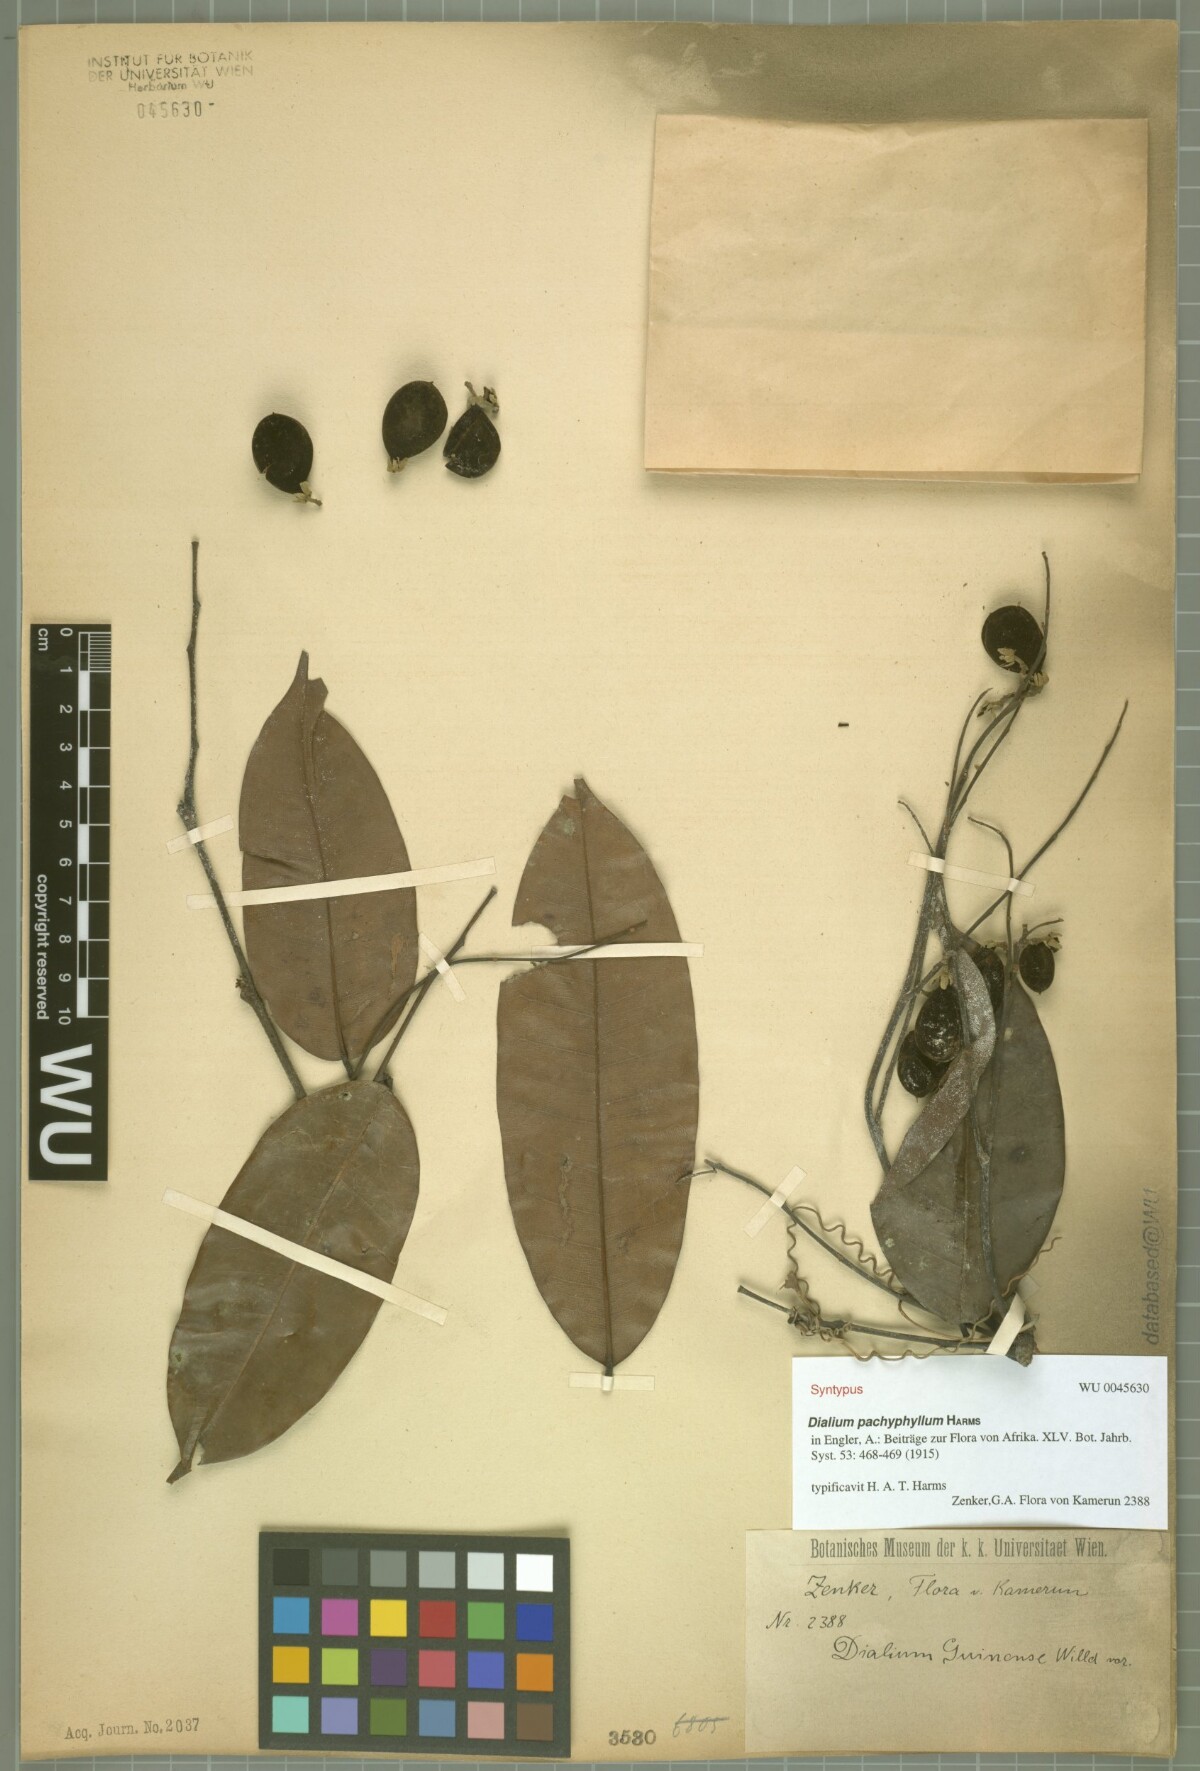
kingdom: Plantae
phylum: Tracheophyta
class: Magnoliopsida
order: Fabales
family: Fabaceae
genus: Dialium
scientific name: Dialium pachyphyllum
